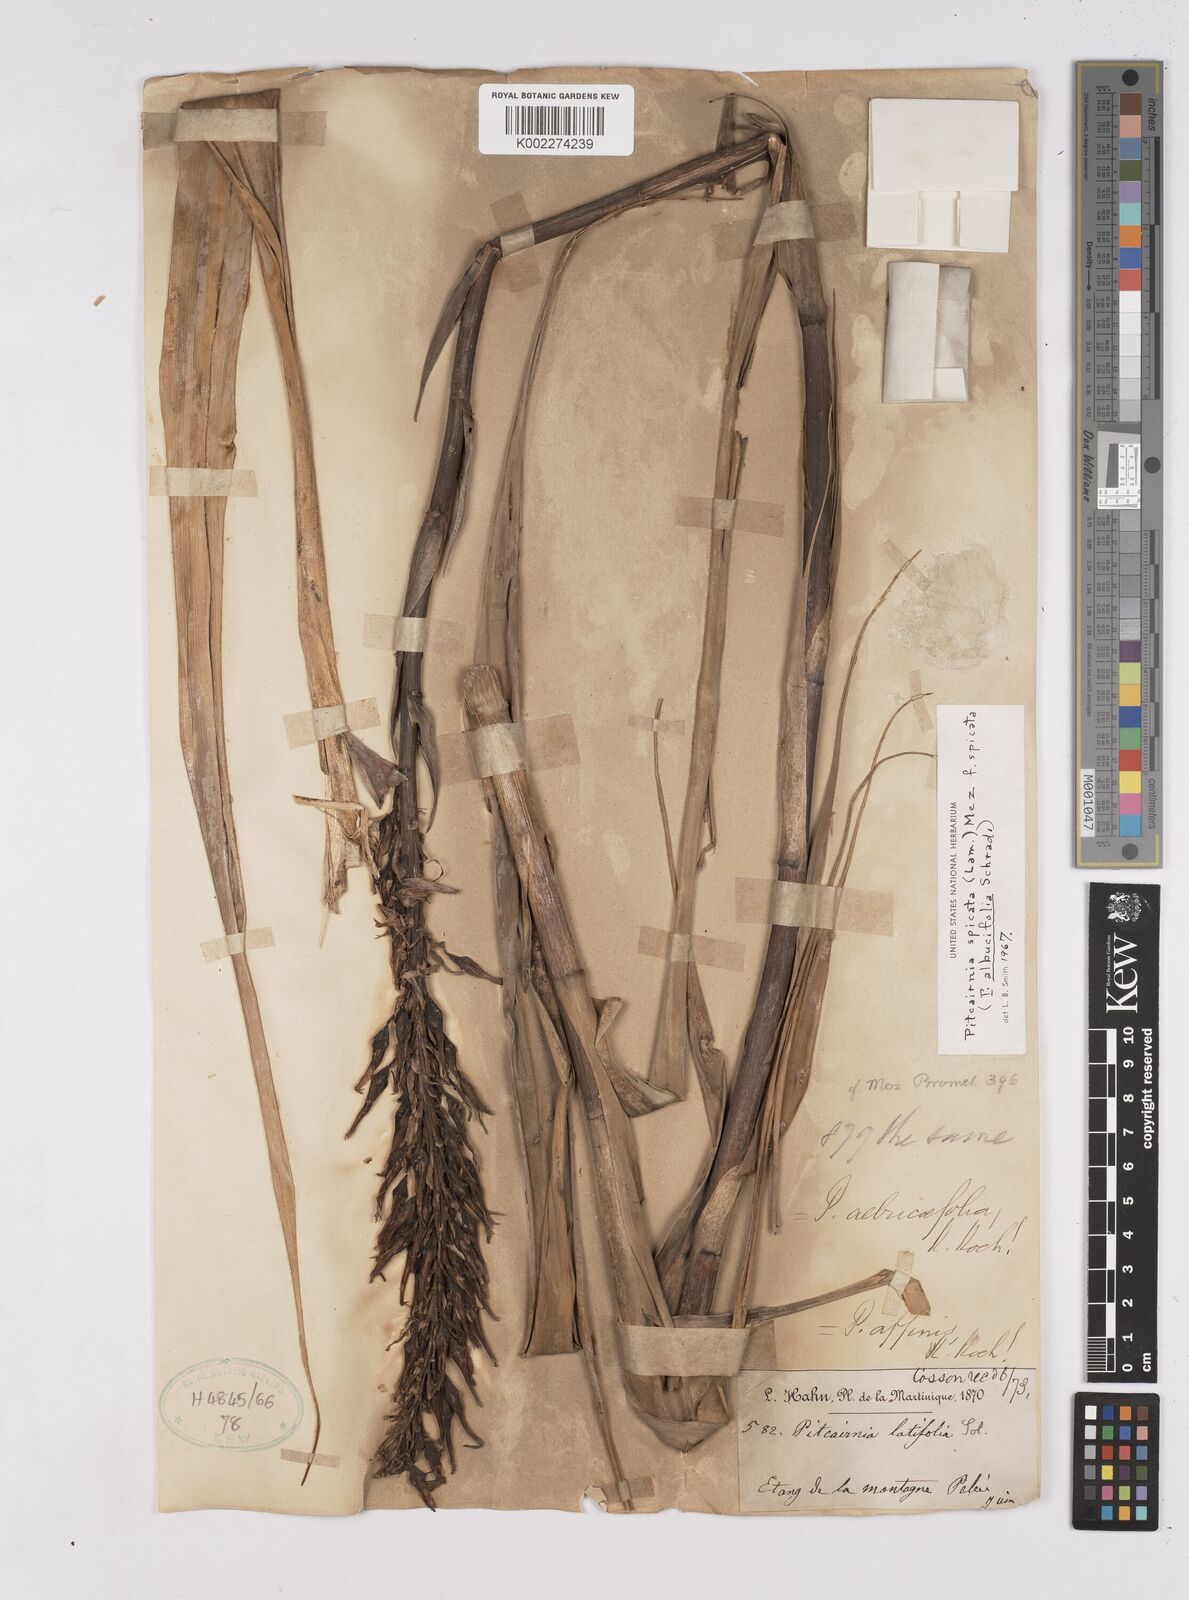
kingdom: Plantae
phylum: Tracheophyta
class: Liliopsida
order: Poales
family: Bromeliaceae
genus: Pitcairnia
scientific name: Pitcairnia spicata
